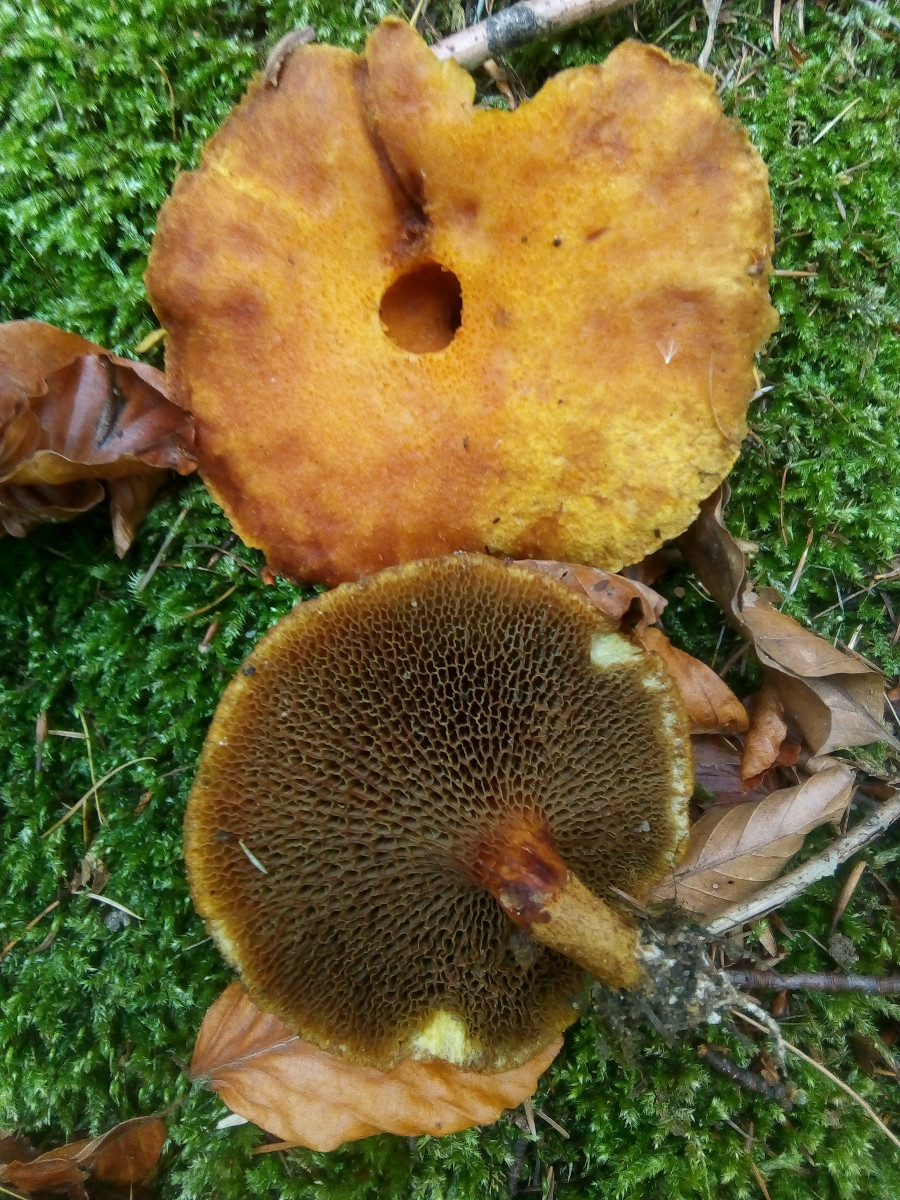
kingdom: Fungi
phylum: Basidiomycota
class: Agaricomycetes
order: Boletales
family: Suillaceae
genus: Suillus
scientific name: Suillus cavipes
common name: hulstokket slimrørhat
